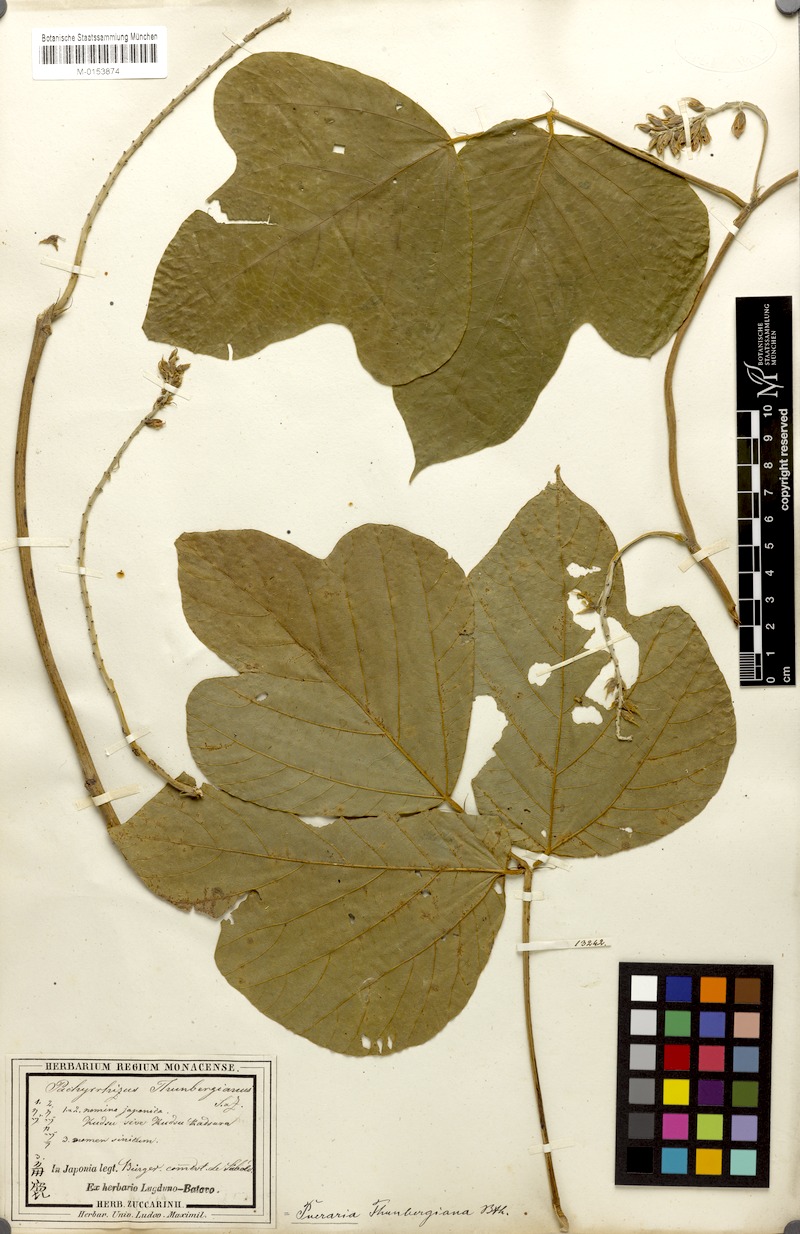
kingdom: Plantae
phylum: Tracheophyta
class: Magnoliopsida
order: Fabales
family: Fabaceae
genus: Pueraria
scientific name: Pueraria montana
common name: Kudzu
